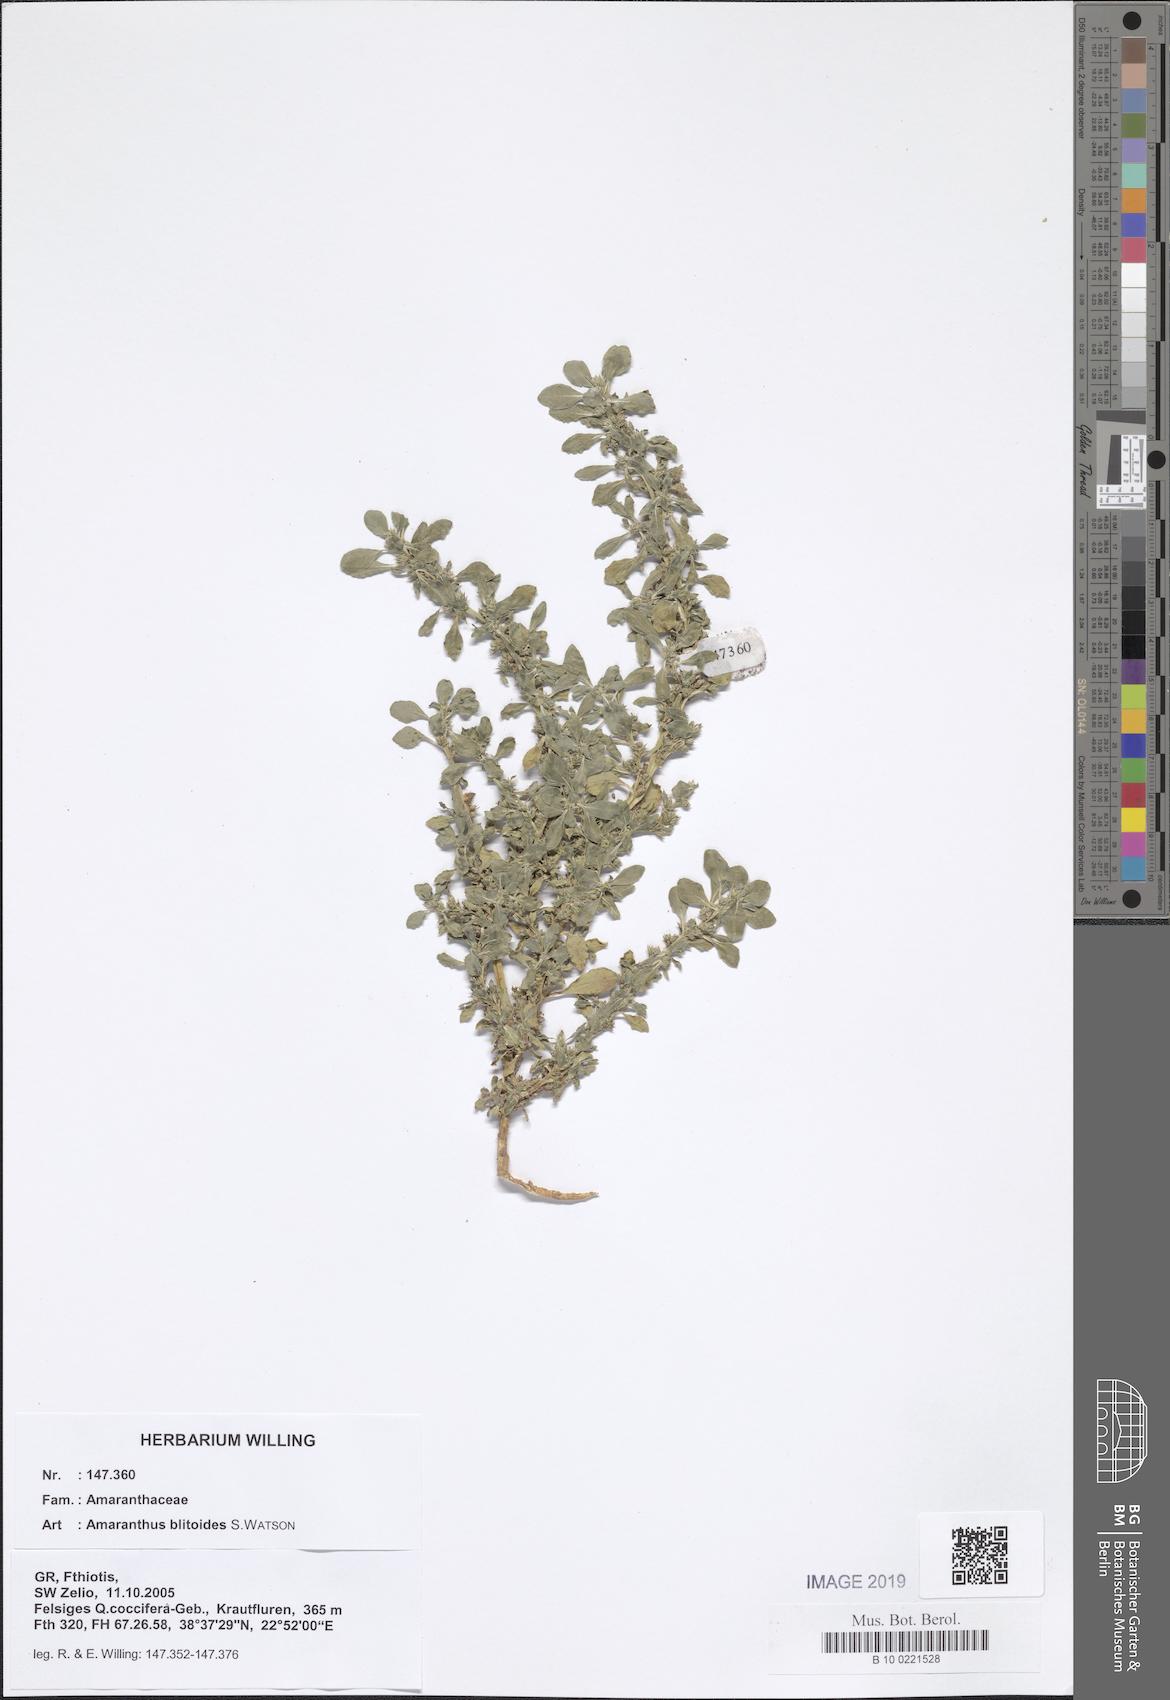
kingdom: Plantae
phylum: Tracheophyta
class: Magnoliopsida
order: Caryophyllales
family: Amaranthaceae
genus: Amaranthus
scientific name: Amaranthus blitoides
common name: Prostrate pigweed
